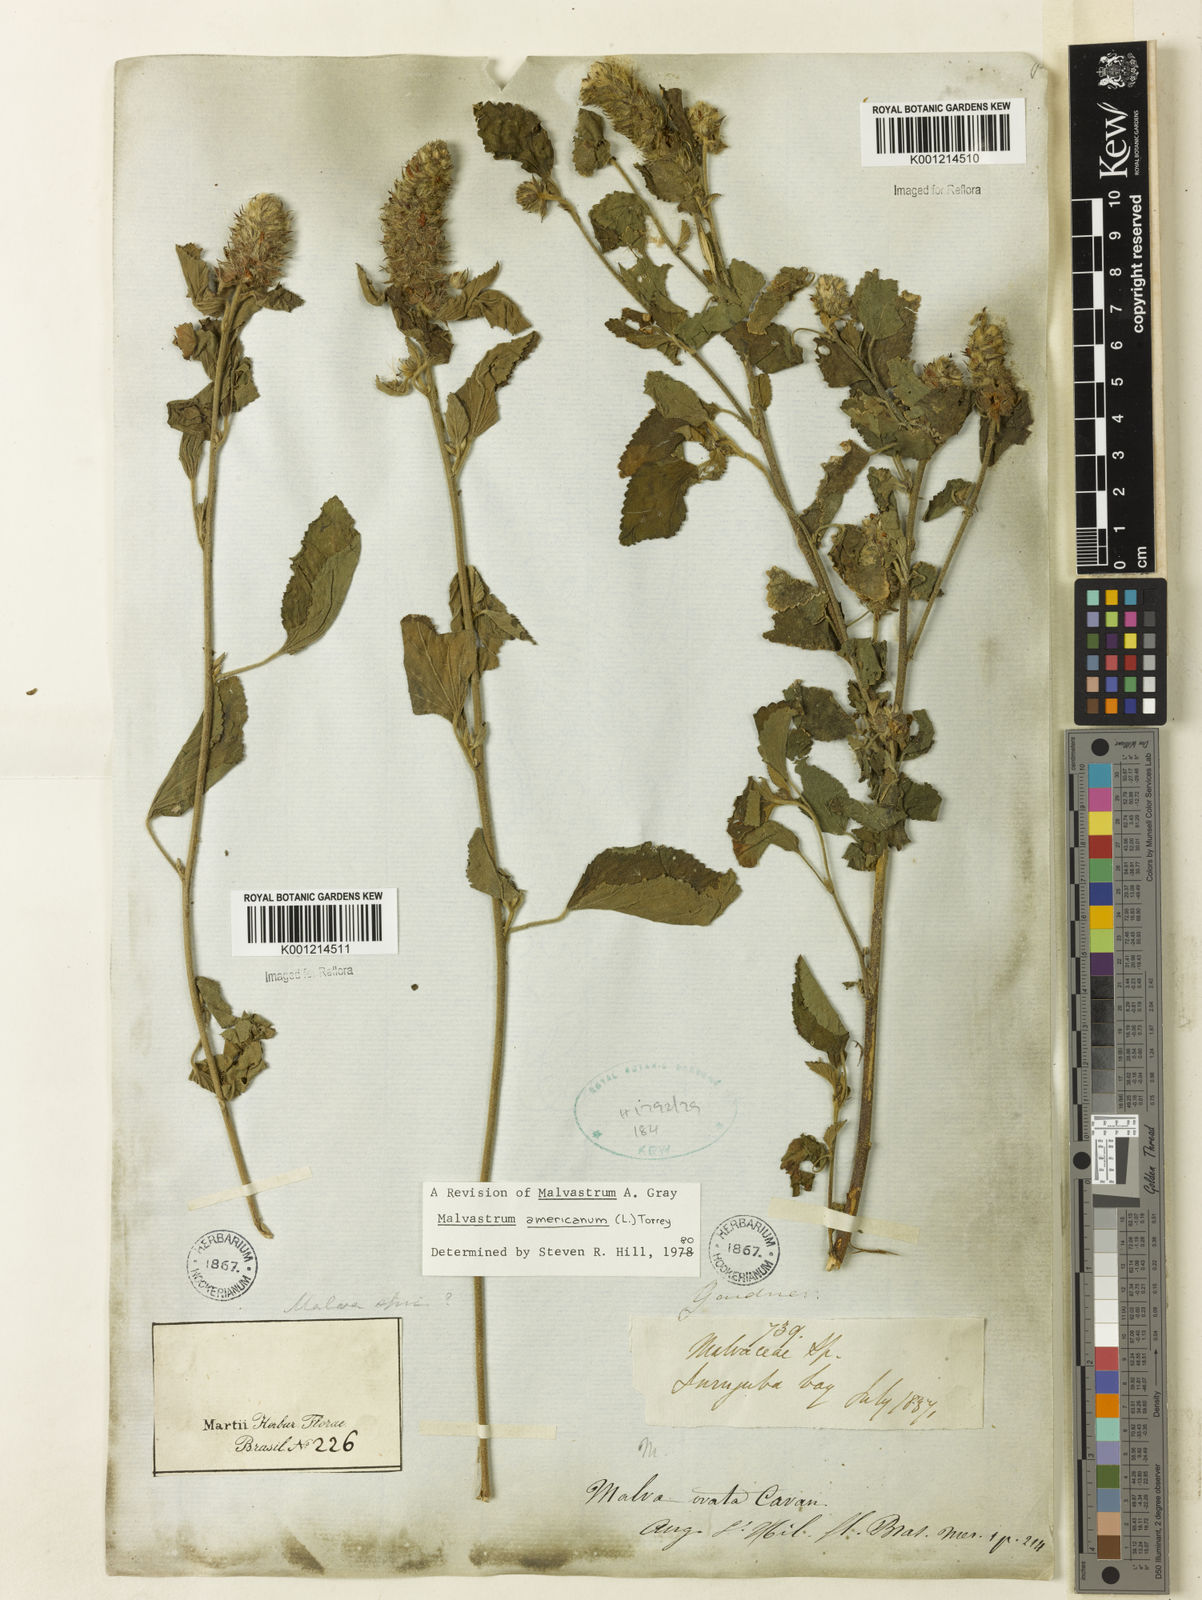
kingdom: Plantae
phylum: Tracheophyta
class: Magnoliopsida
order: Malvales
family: Malvaceae
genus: Malvastrum
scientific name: Malvastrum americanum
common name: Spiked malvastrum
